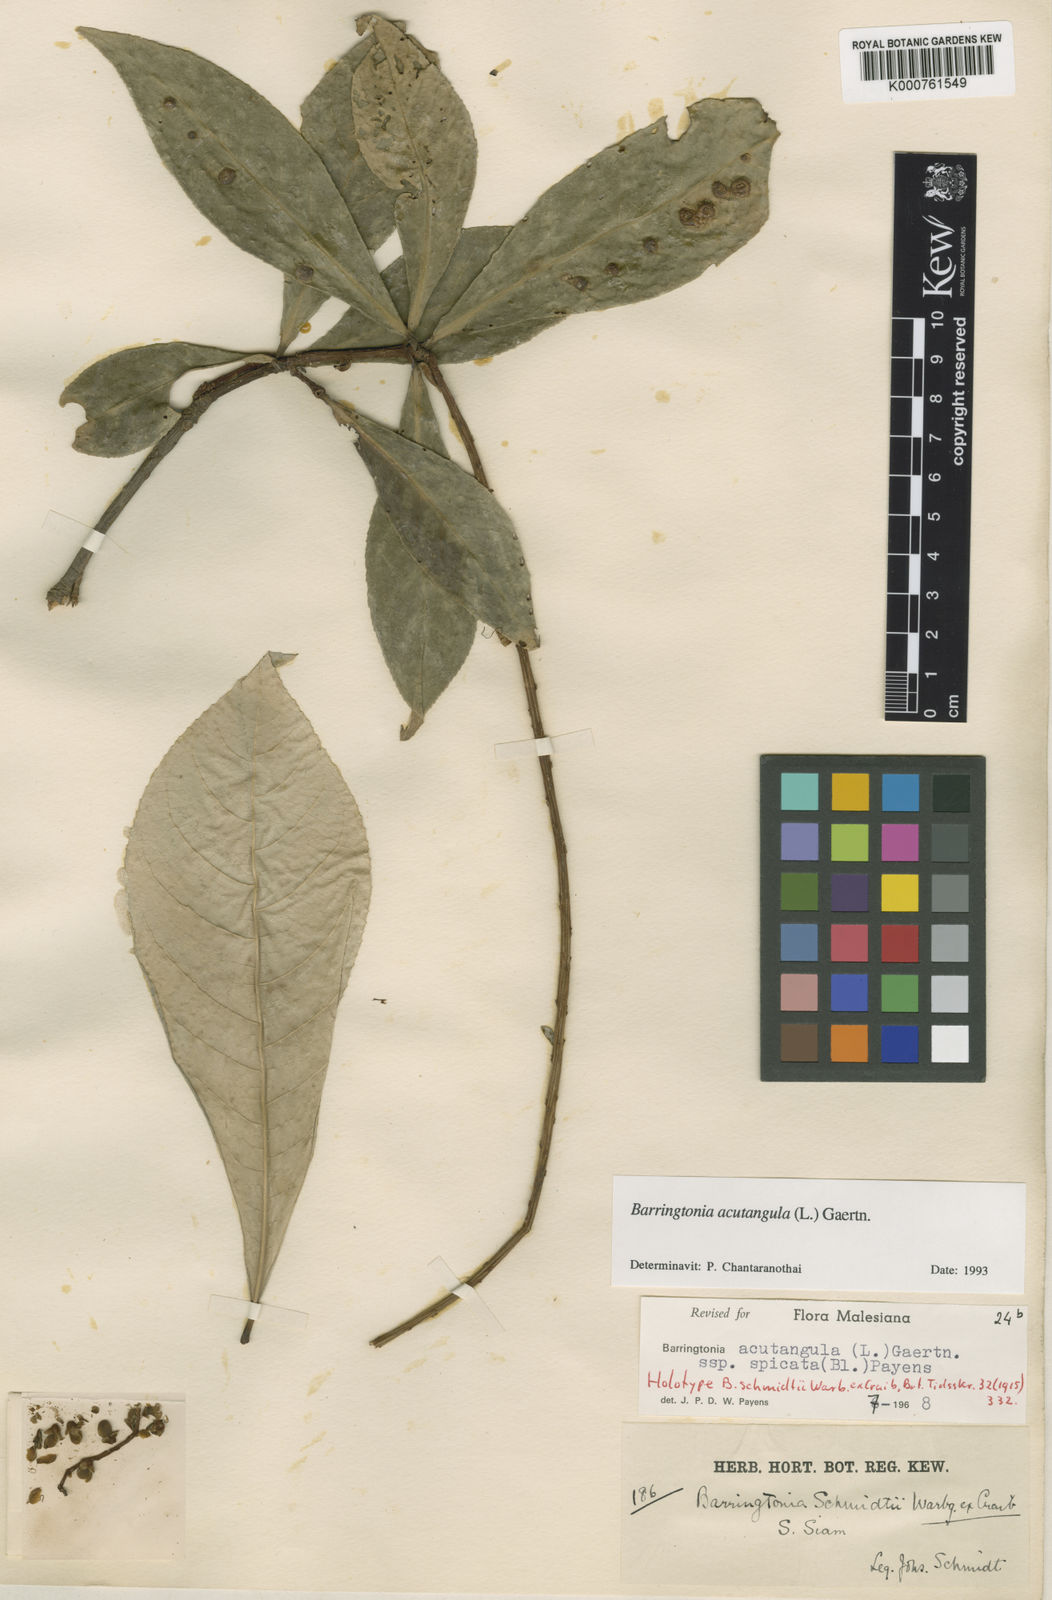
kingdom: Plantae
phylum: Tracheophyta
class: Magnoliopsida
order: Ericales
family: Lecythidaceae
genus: Barringtonia
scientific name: Barringtonia acutangula
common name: Freshwater mangrove
